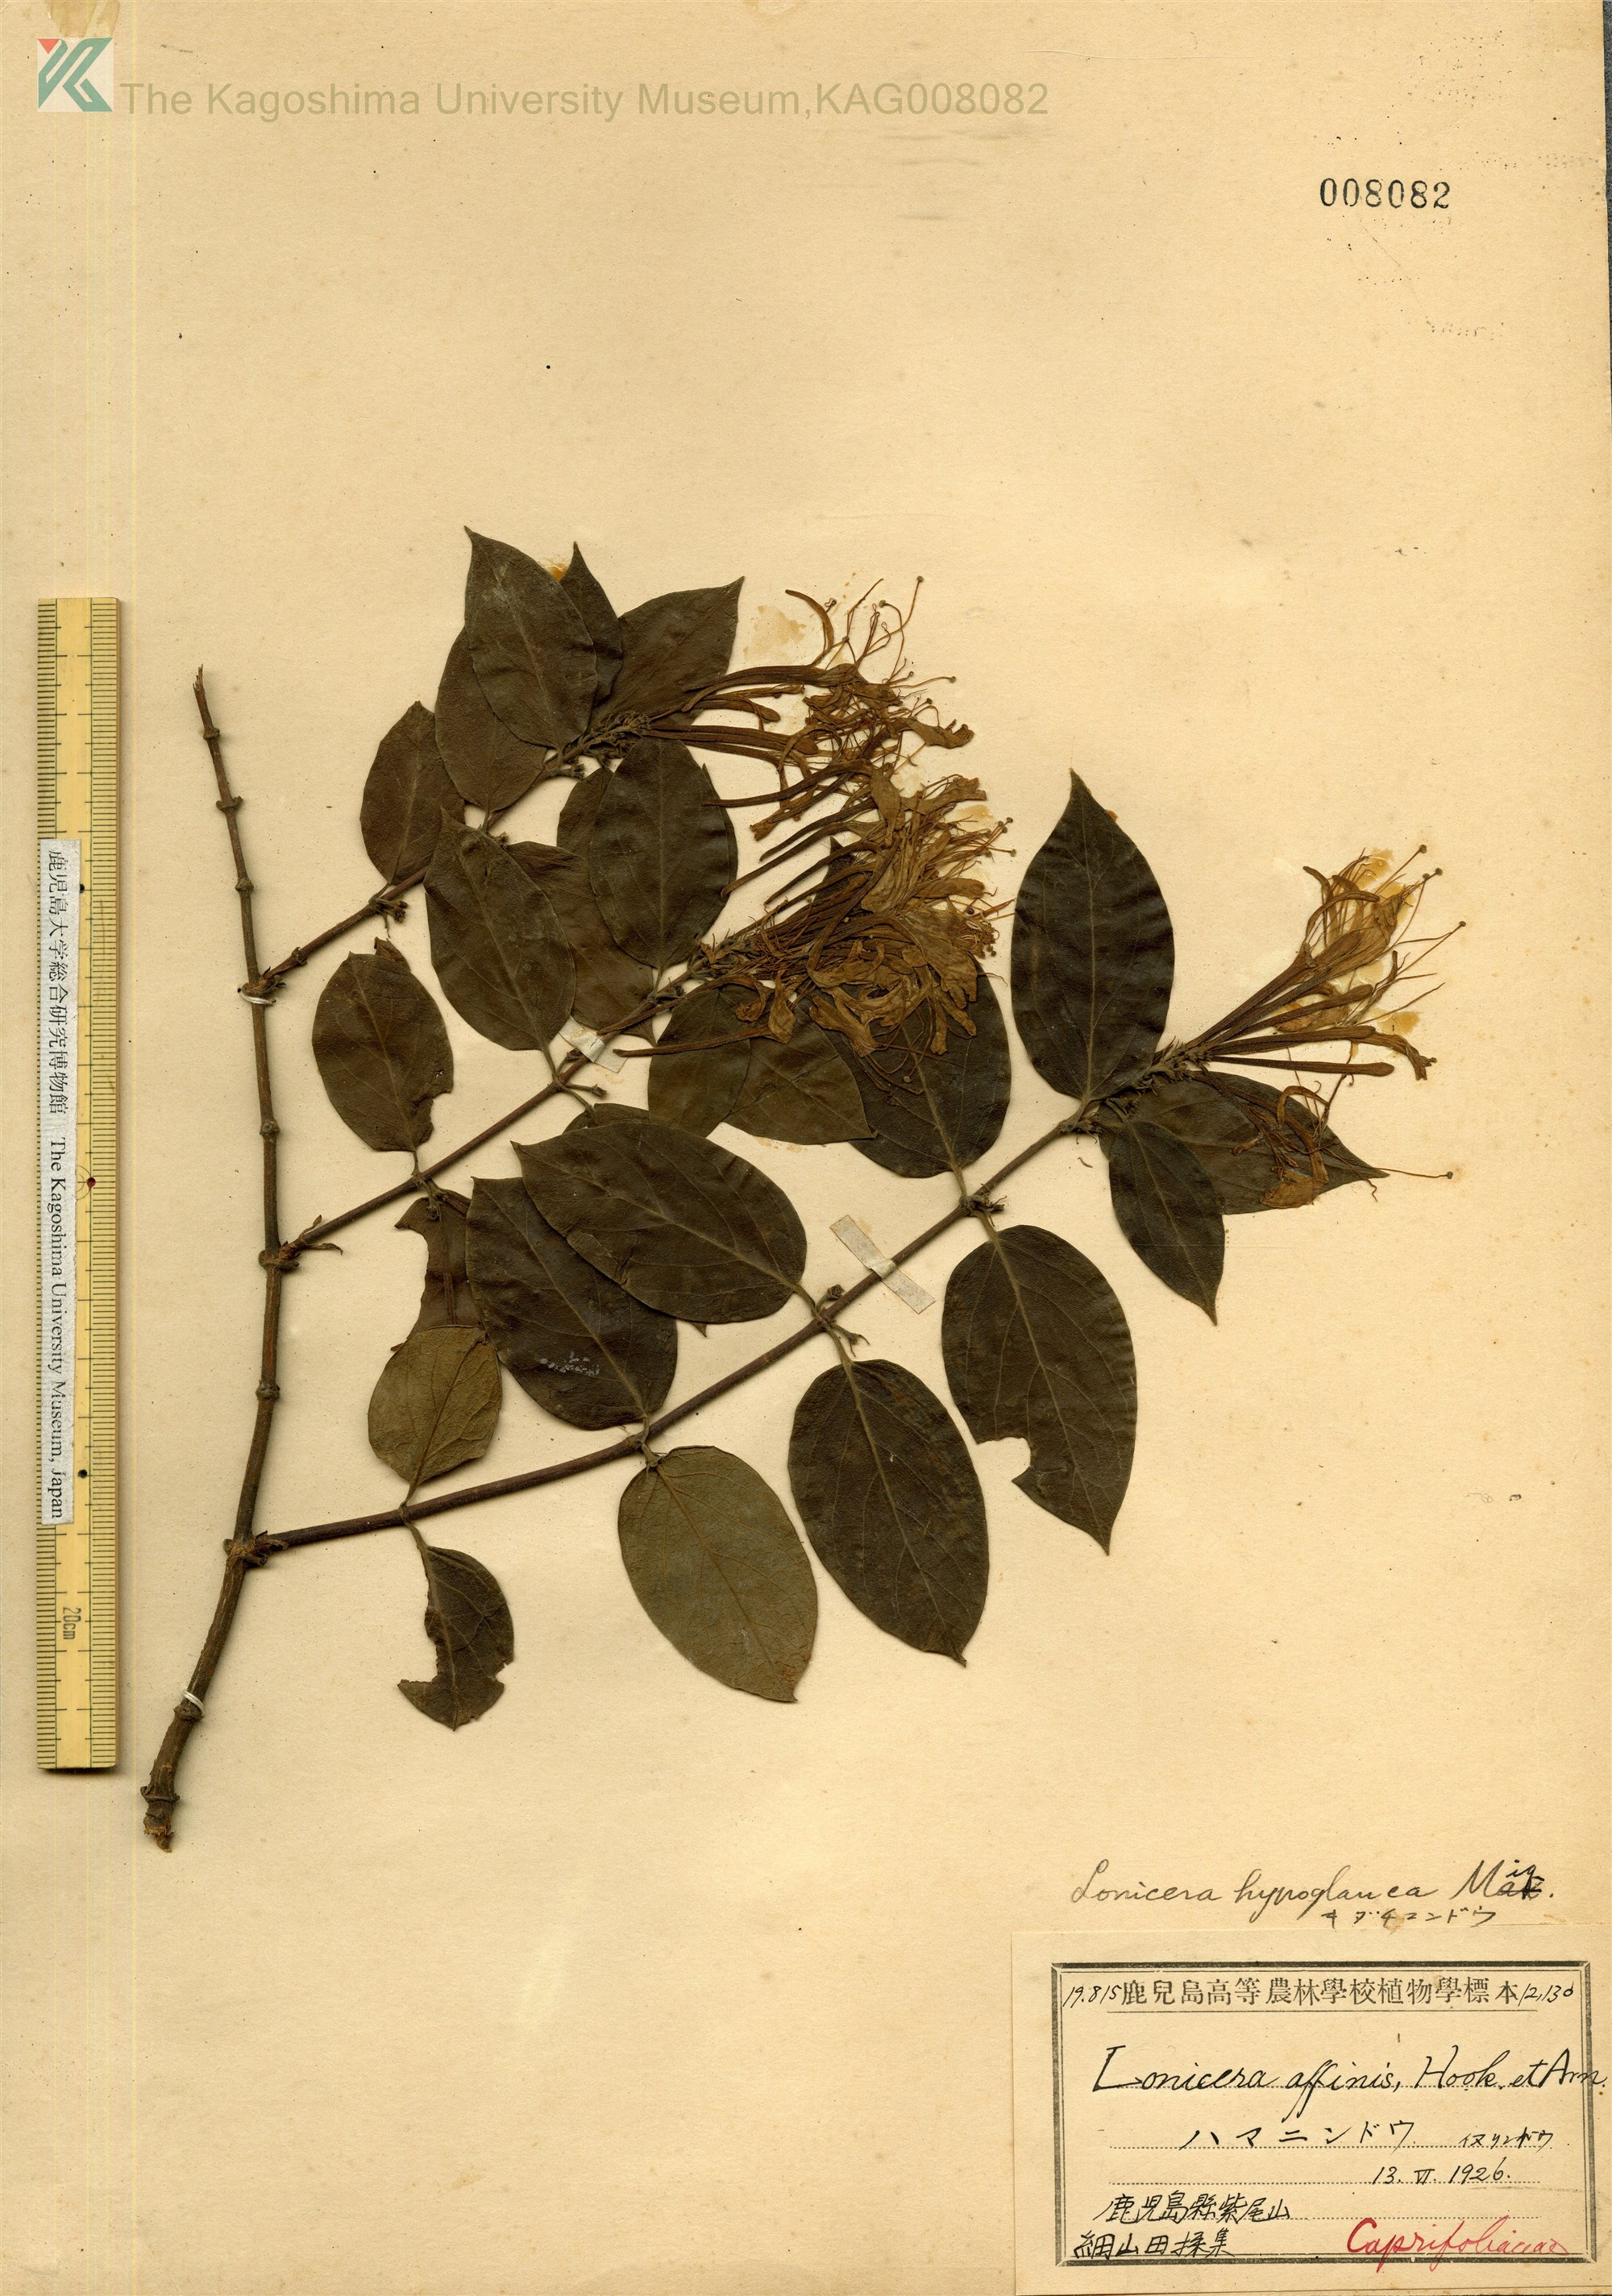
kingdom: Plantae
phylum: Tracheophyta
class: Magnoliopsida
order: Dipsacales
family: Caprifoliaceae
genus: Lonicera
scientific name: Lonicera hypoglauca
